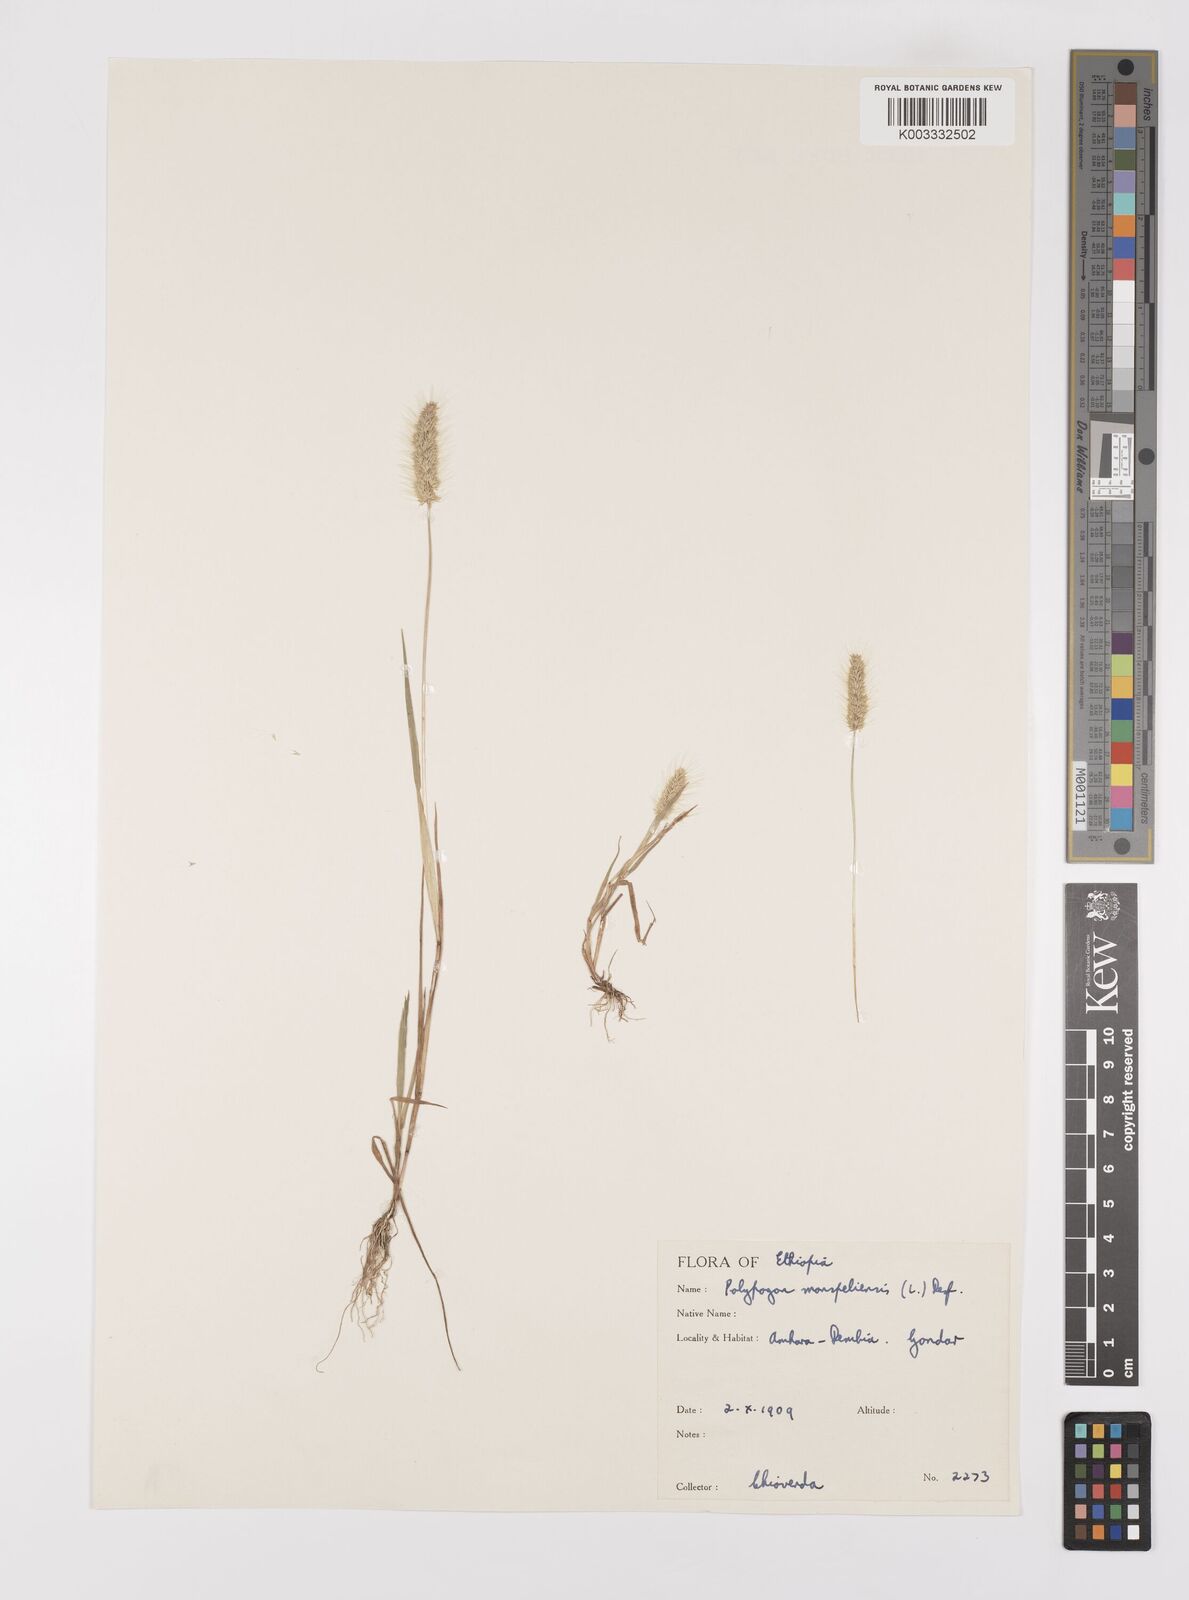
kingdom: Plantae
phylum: Tracheophyta
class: Liliopsida
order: Poales
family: Poaceae
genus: Polypogon
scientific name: Polypogon monspeliensis
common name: Annual rabbitsfoot grass
